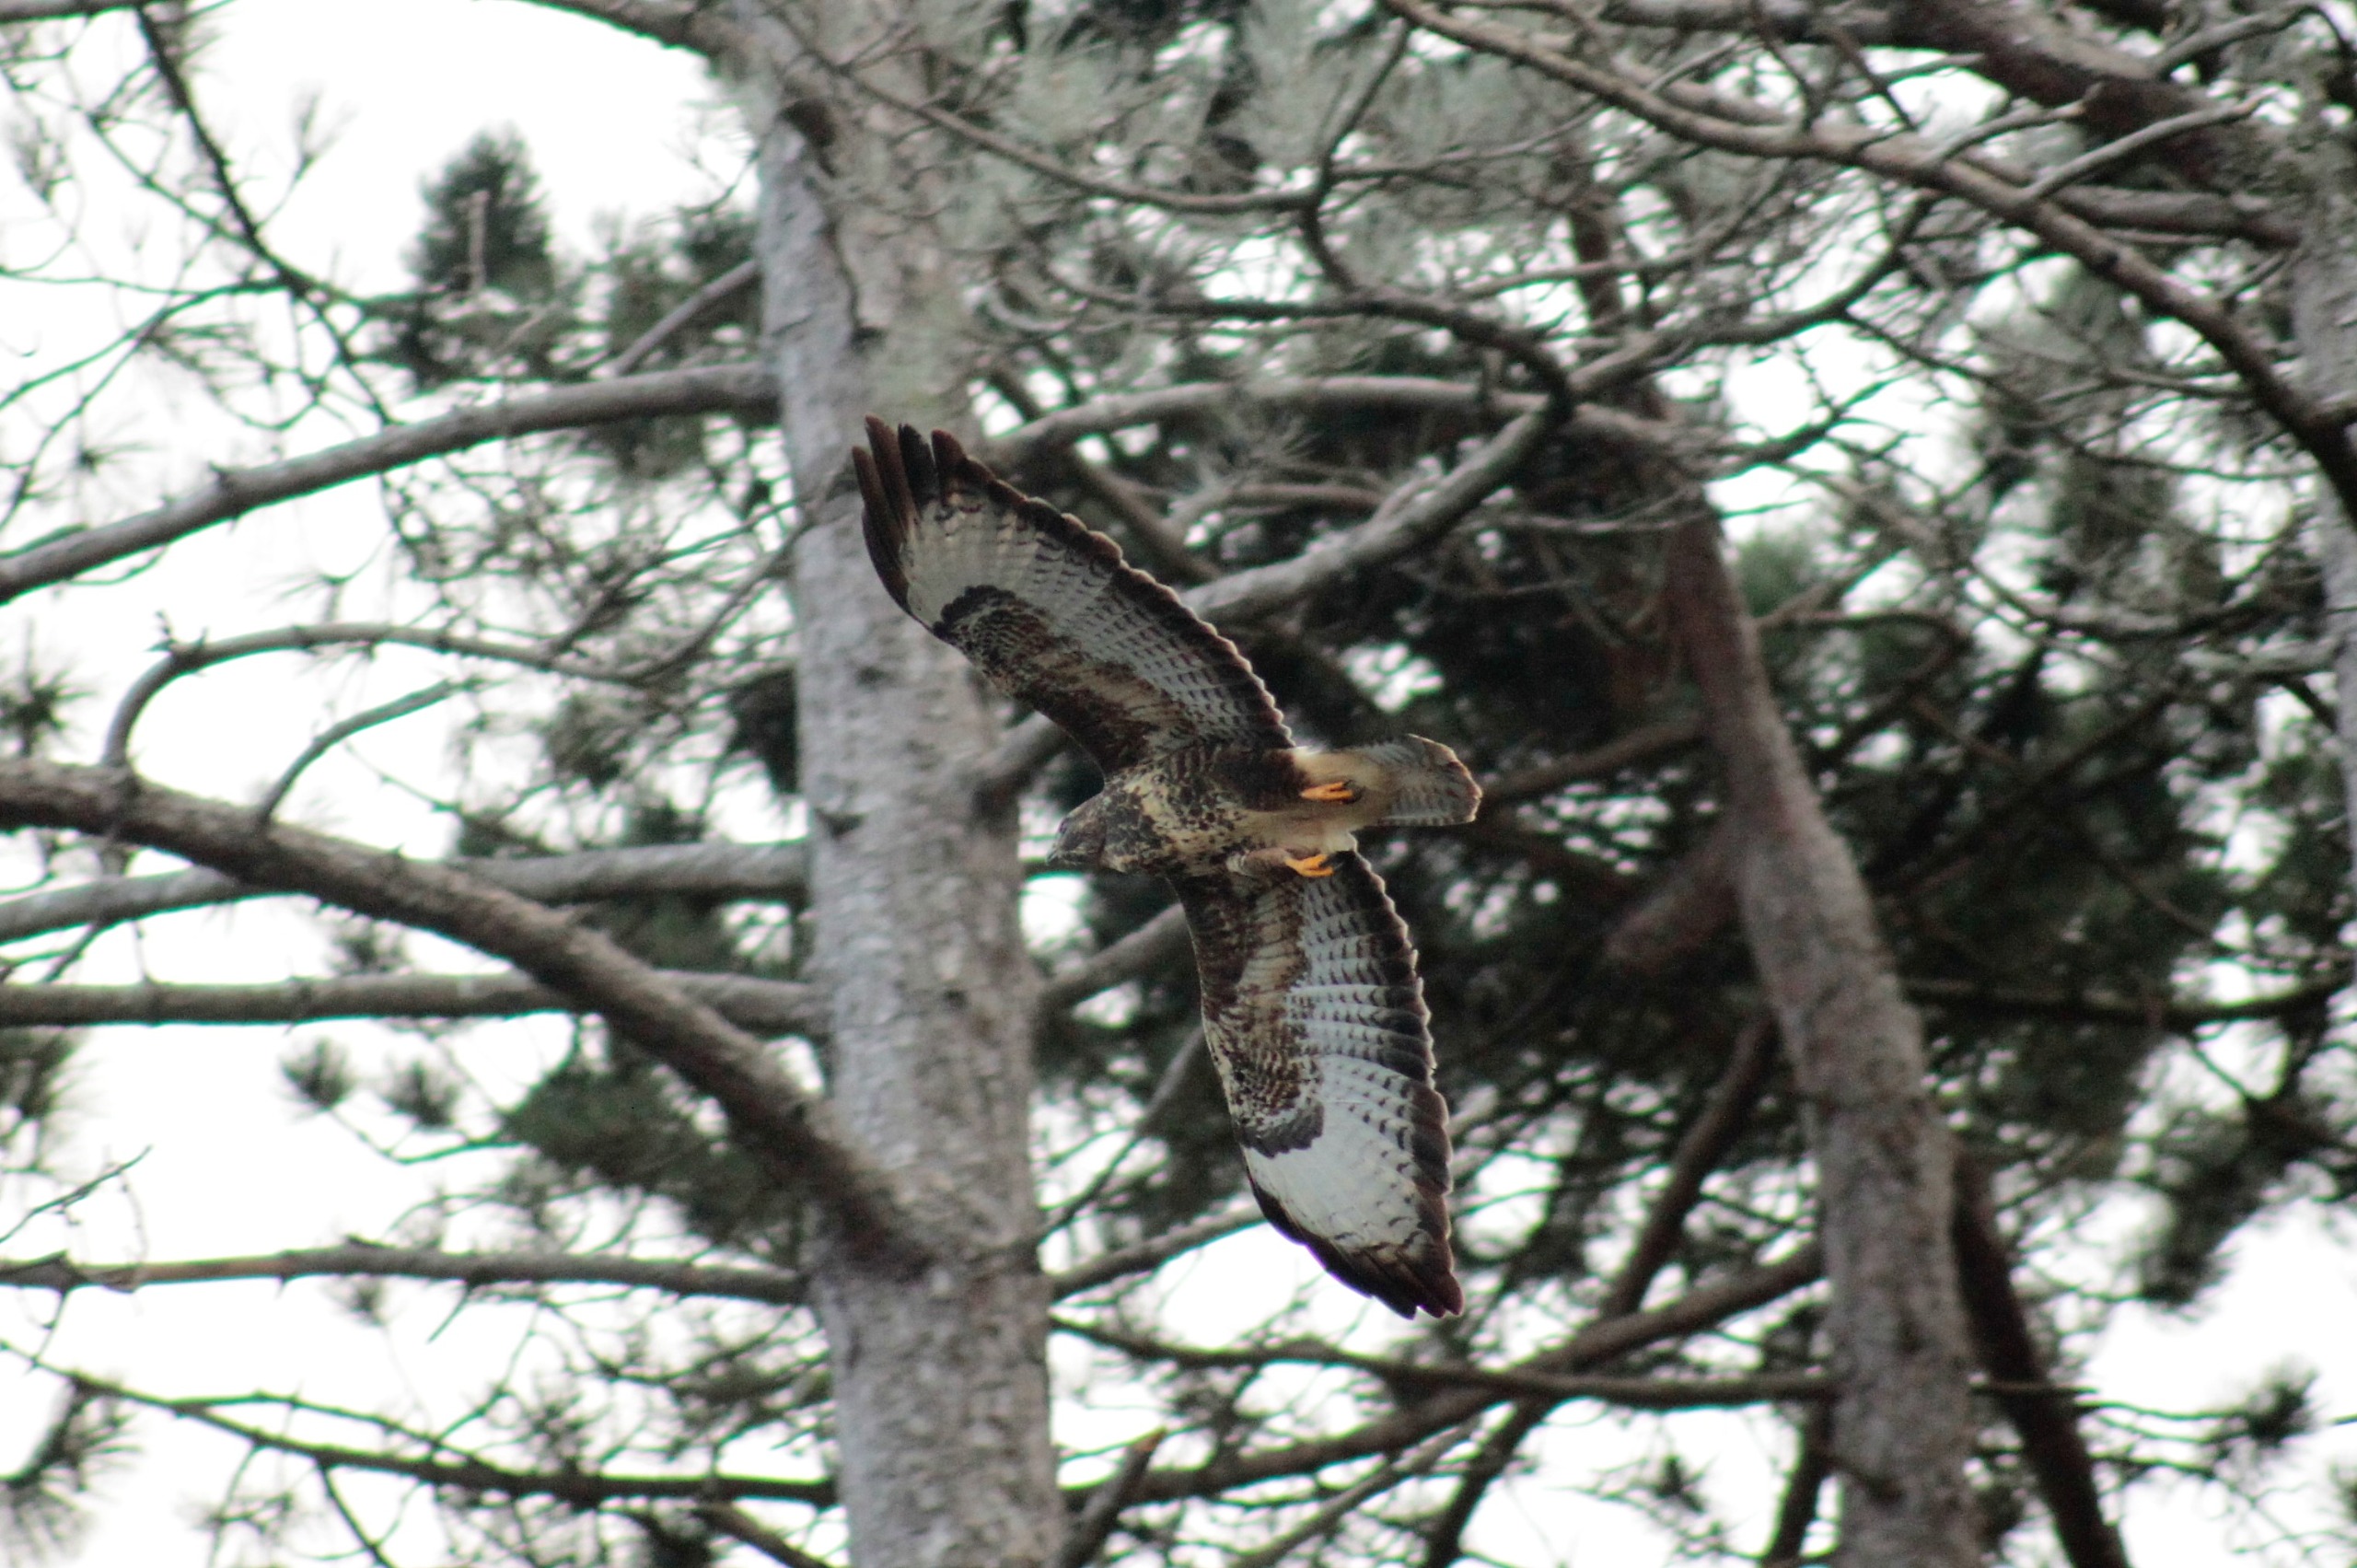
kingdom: Animalia
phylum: Chordata
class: Aves
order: Accipitriformes
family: Accipitridae
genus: Buteo
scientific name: Buteo buteo
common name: Musvåge
